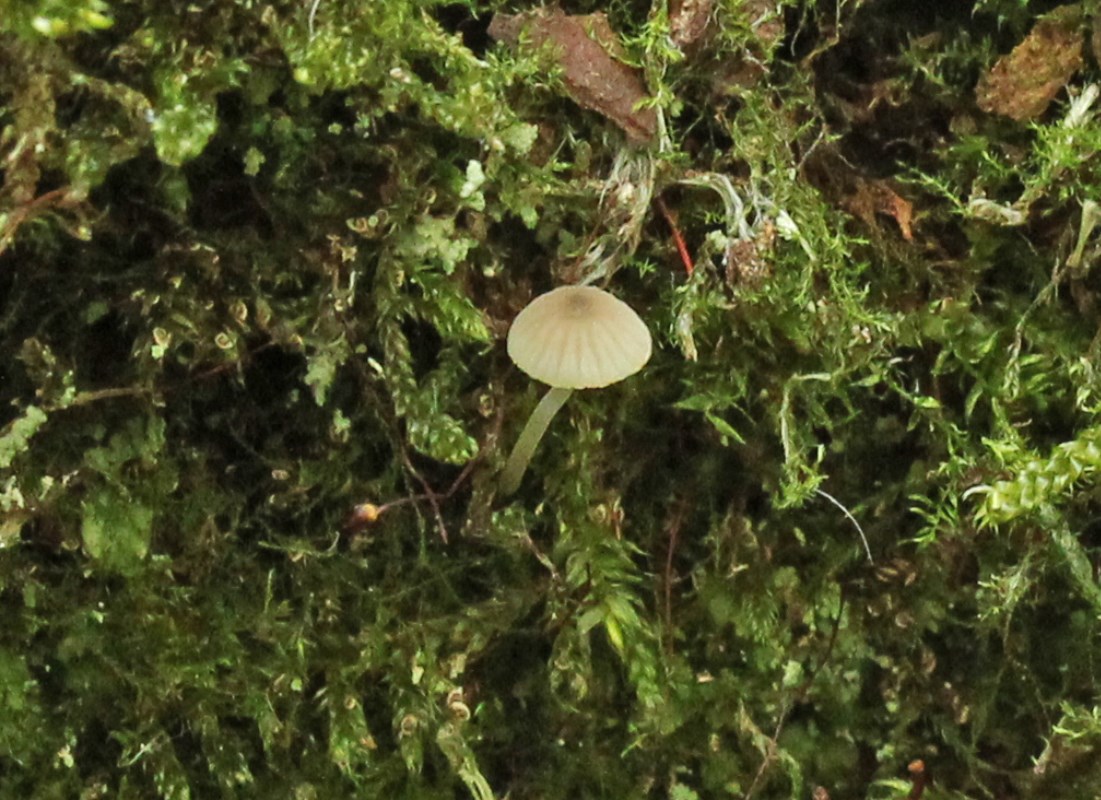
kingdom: Fungi
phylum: Basidiomycota
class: Agaricomycetes
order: Agaricales
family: Porotheleaceae
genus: Phloeomana
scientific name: Phloeomana hiemalis
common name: sen huesvamp
